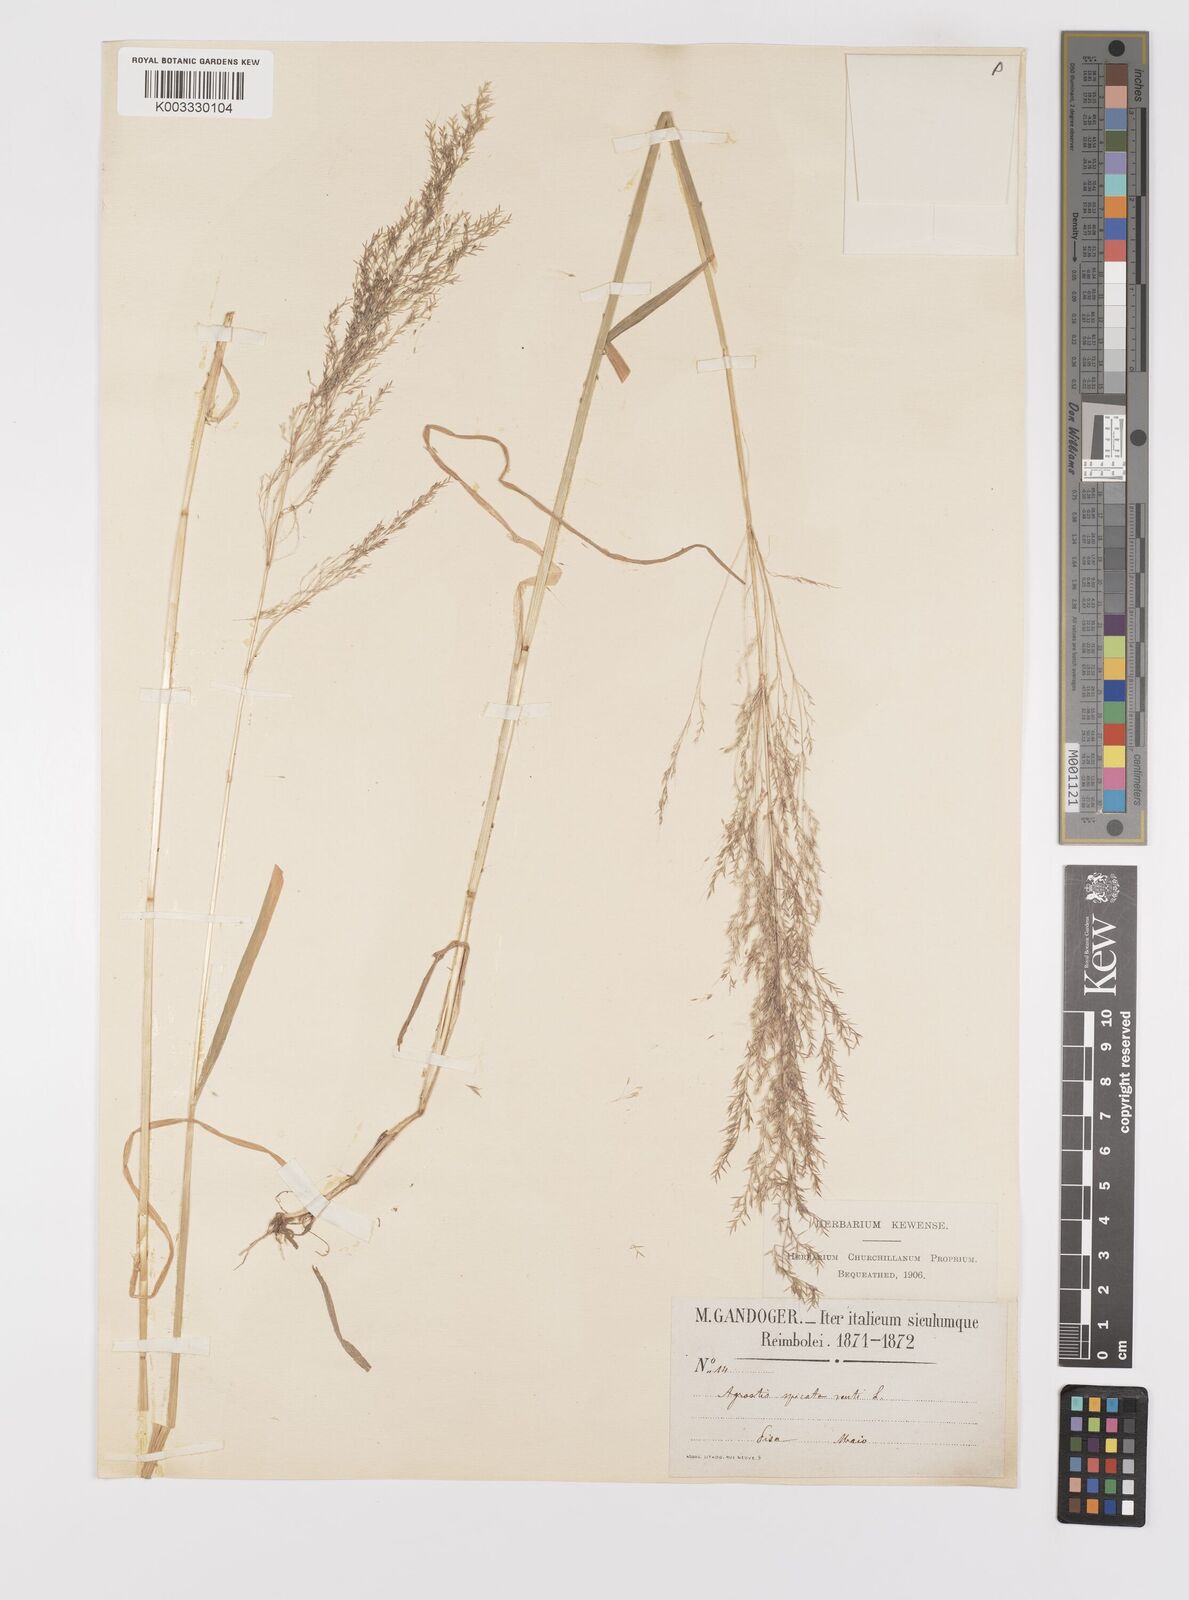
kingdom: Plantae
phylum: Tracheophyta
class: Liliopsida
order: Poales
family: Poaceae
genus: Apera
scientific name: Apera spica-venti
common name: Loose silky-bent
